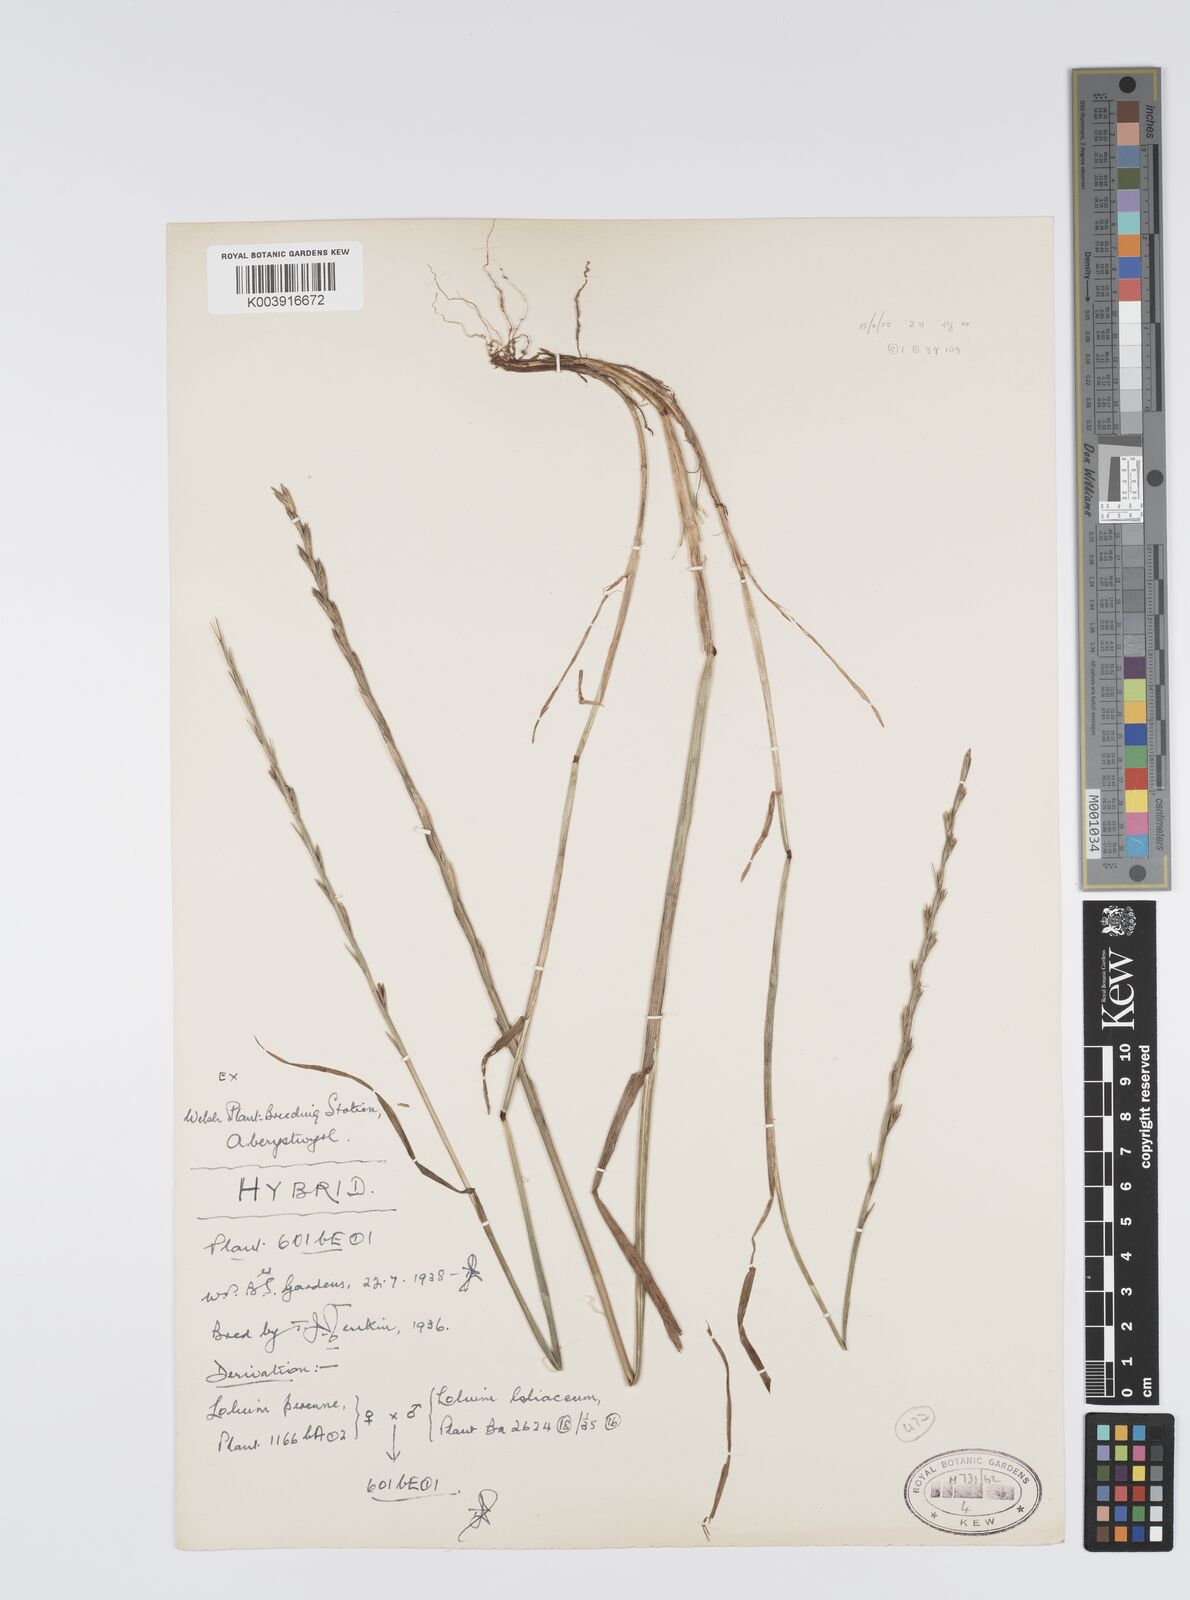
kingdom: Plantae
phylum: Tracheophyta
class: Liliopsida
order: Poales
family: Poaceae
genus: Lolium
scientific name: Lolium perenne
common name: Perennial ryegrass
